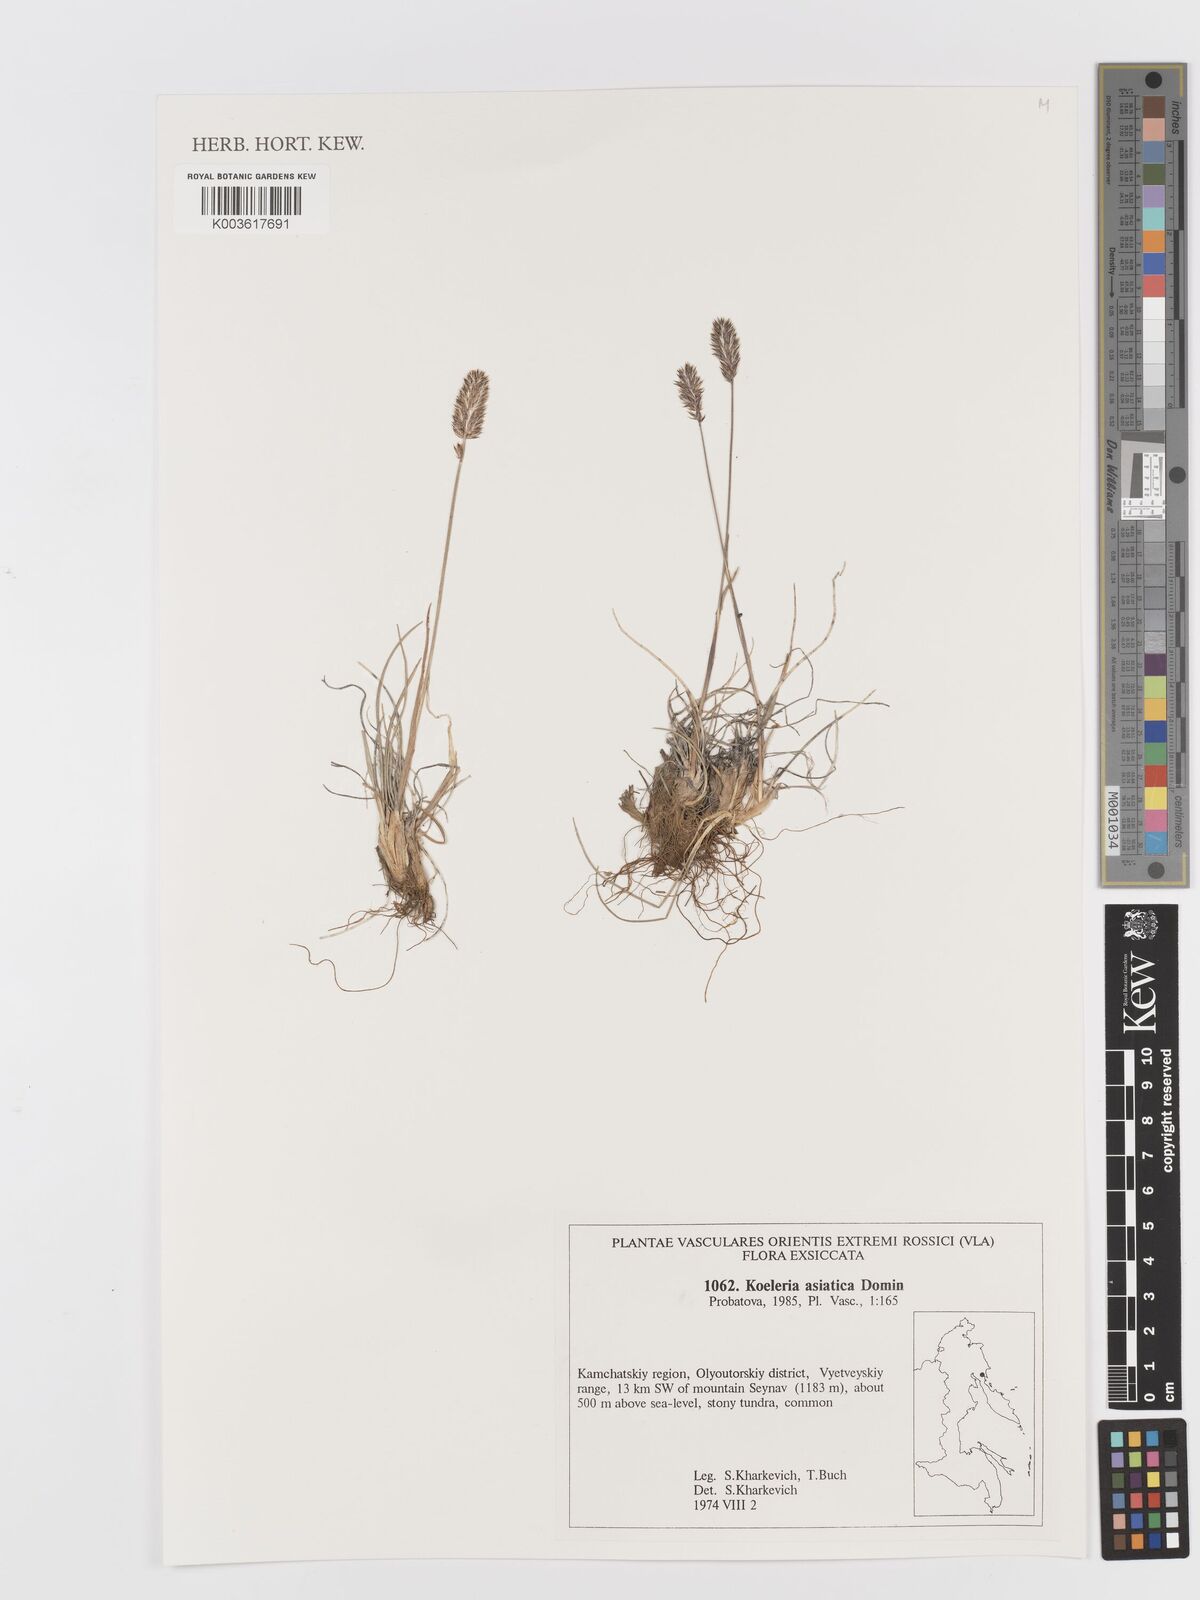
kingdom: Plantae
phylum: Tracheophyta
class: Liliopsida
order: Poales
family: Poaceae
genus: Koeleria
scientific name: Koeleria asiatica
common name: Eurasian junegrass
